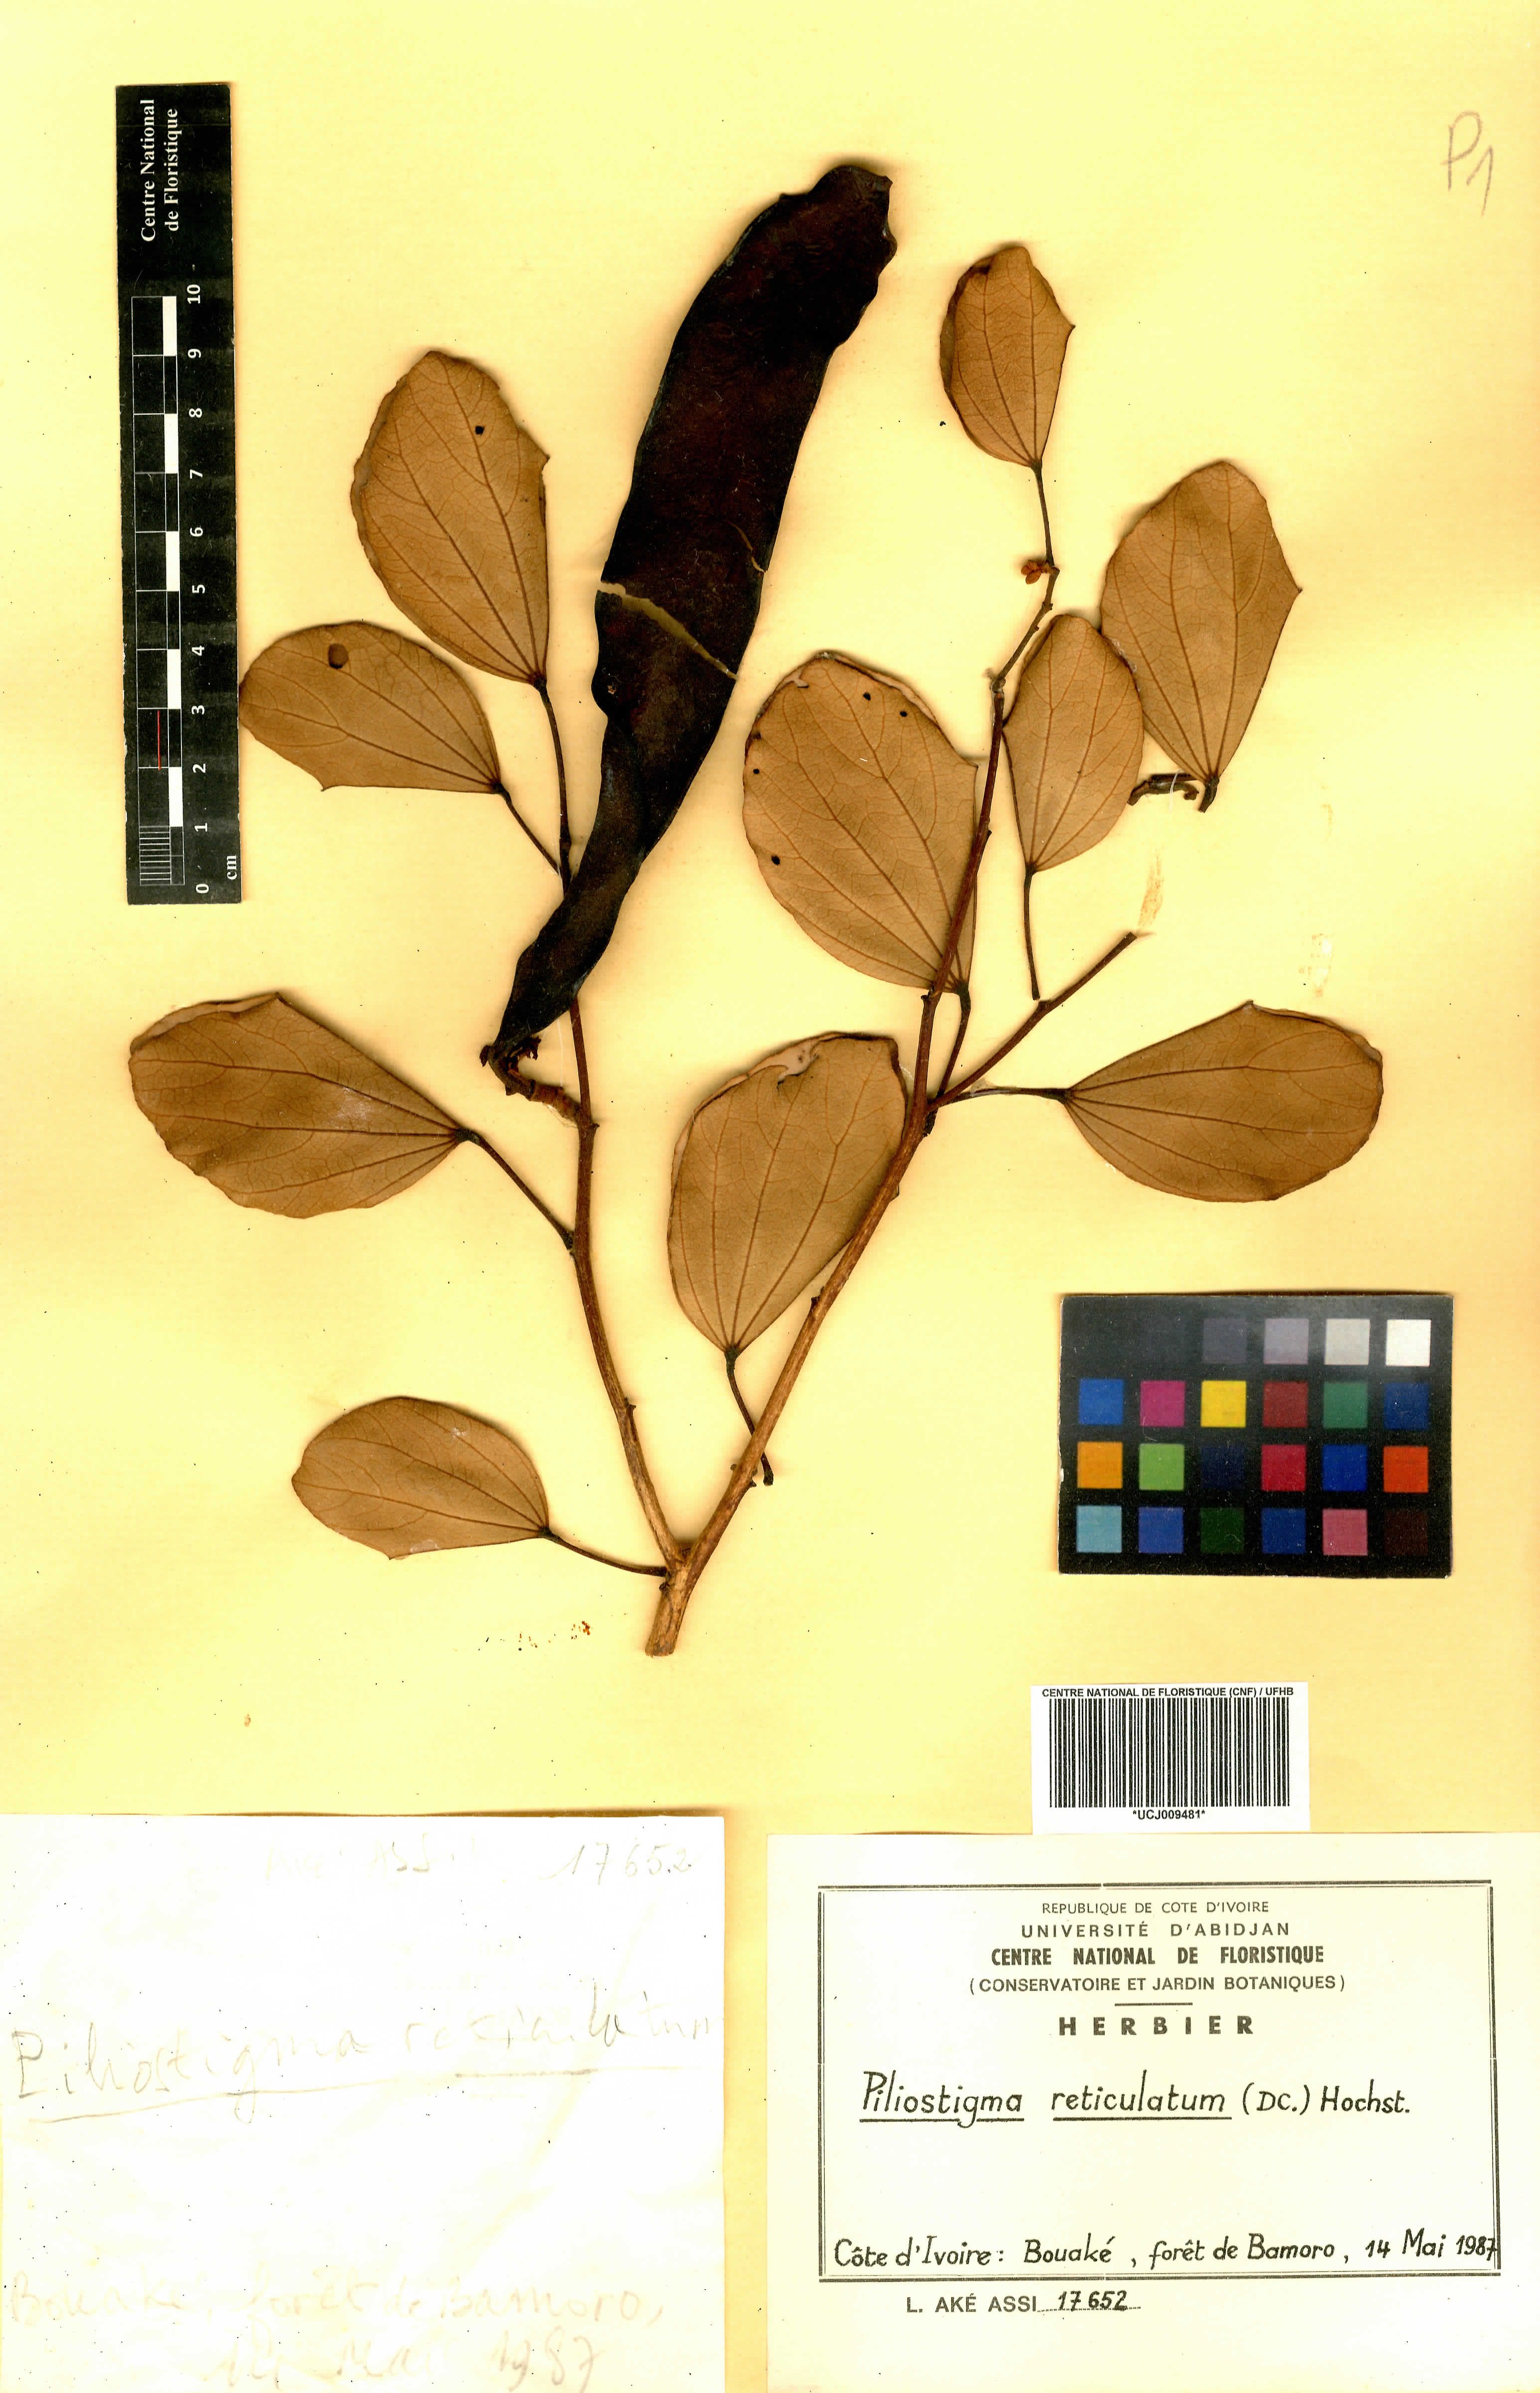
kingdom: Plantae
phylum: Tracheophyta
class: Magnoliopsida
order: Fabales
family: Fabaceae
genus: Piliostigma
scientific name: Piliostigma reticulatum
